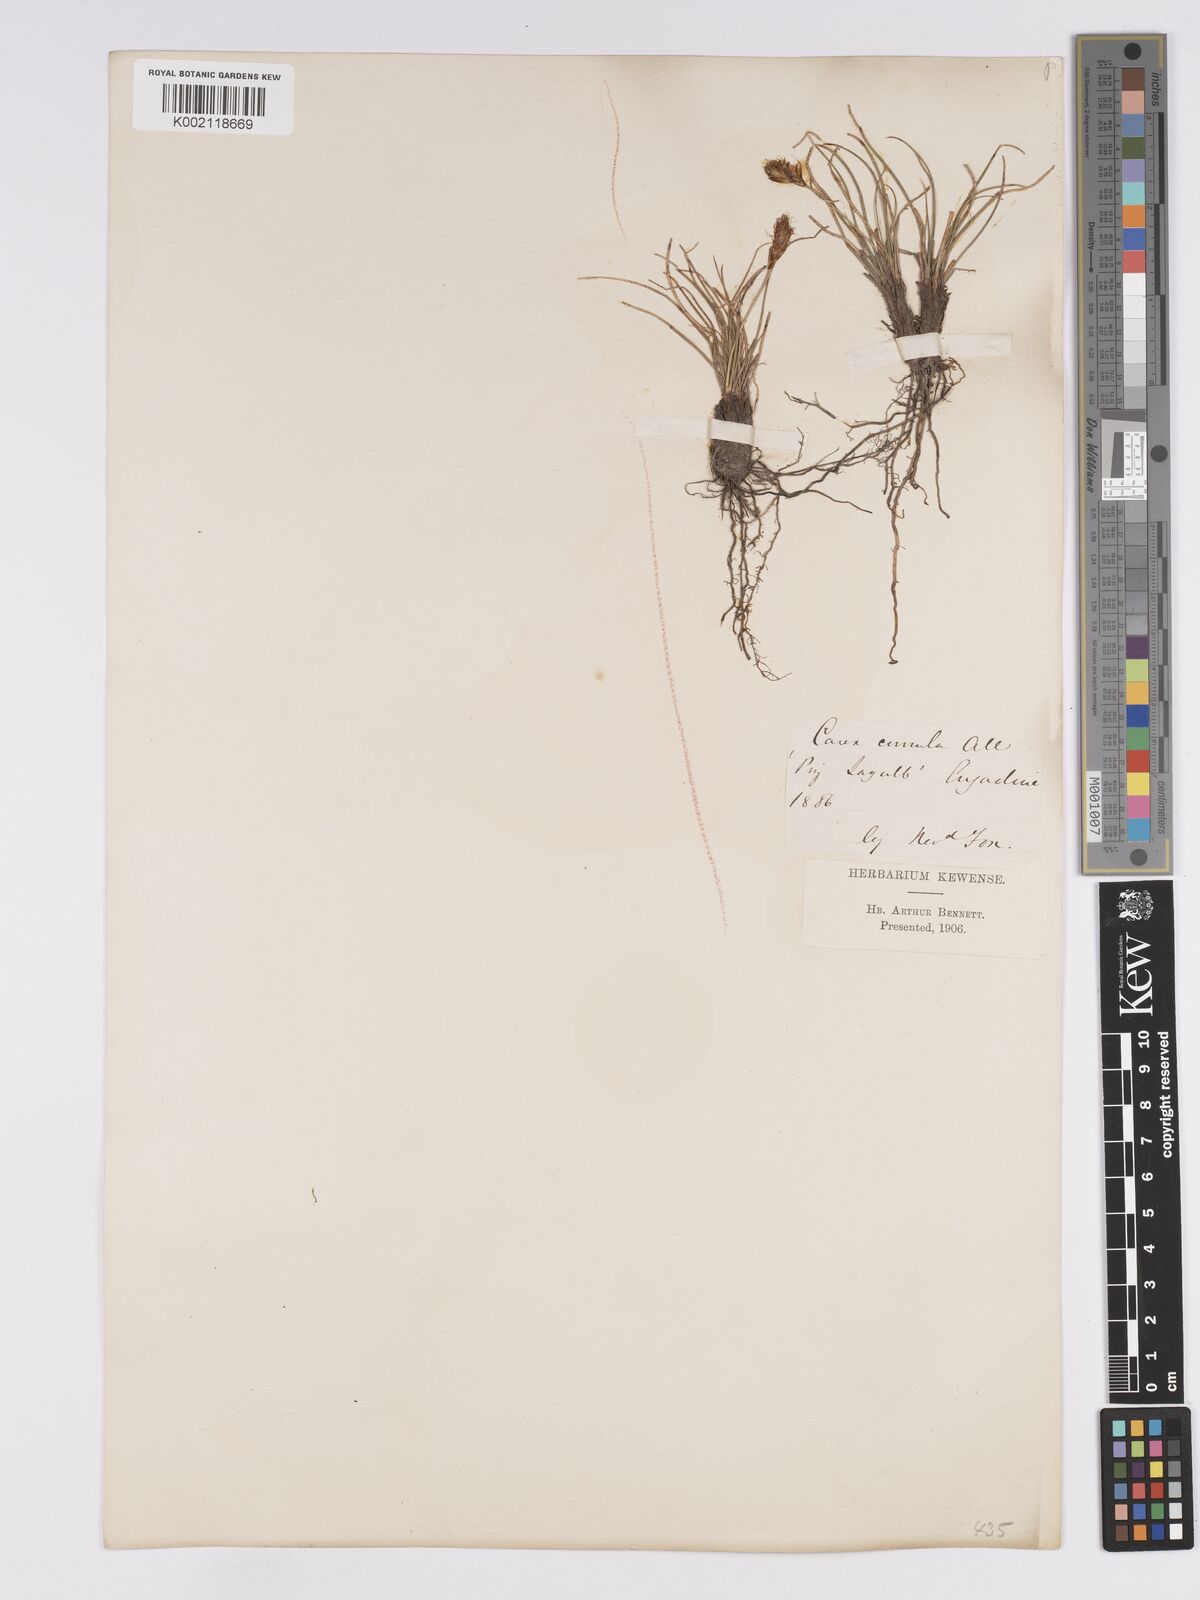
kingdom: Plantae
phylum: Tracheophyta
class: Liliopsida
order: Poales
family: Cyperaceae
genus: Carex
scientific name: Carex curvula
